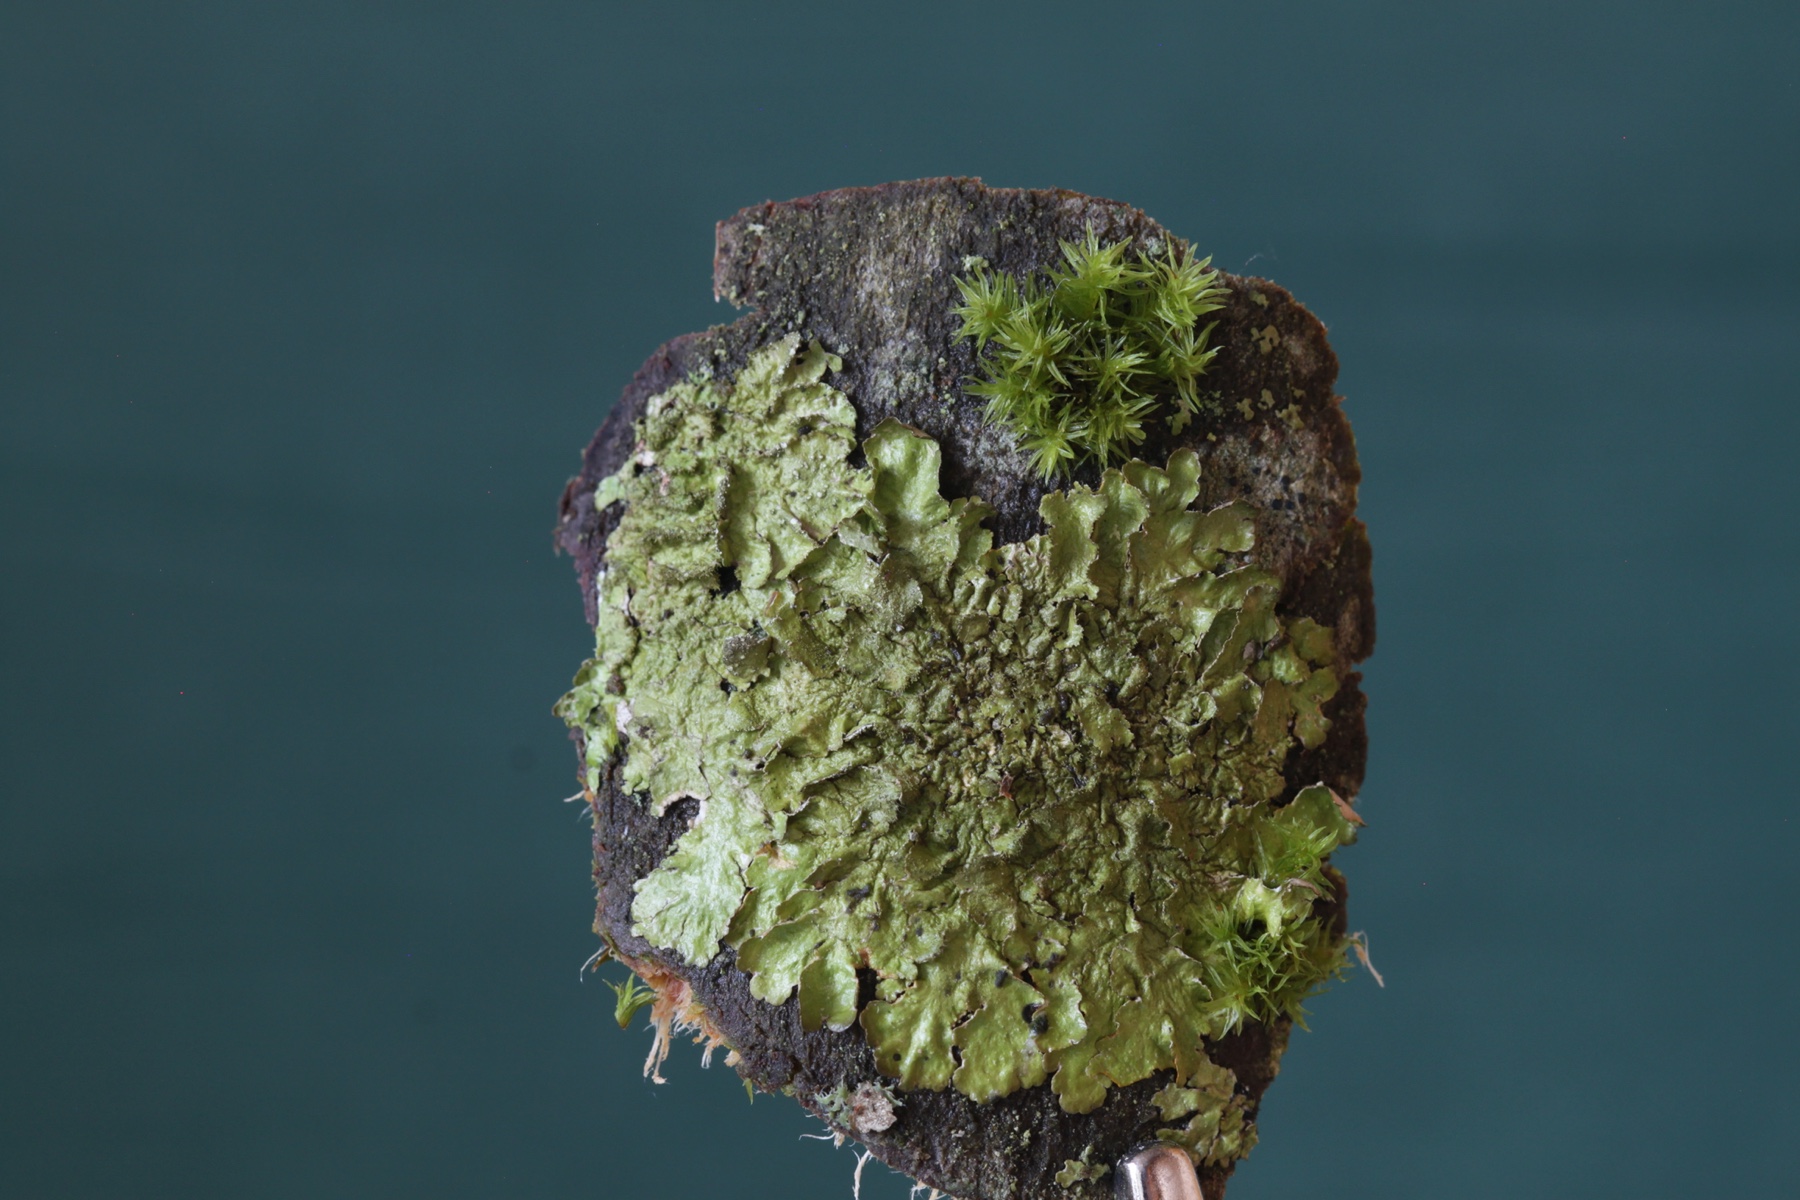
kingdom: Fungi
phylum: Ascomycota
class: Lecanoromycetes
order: Lecanorales
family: Parmeliaceae
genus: Melanelixia
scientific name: Melanelixia subaurifera
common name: guldpudret skållav
